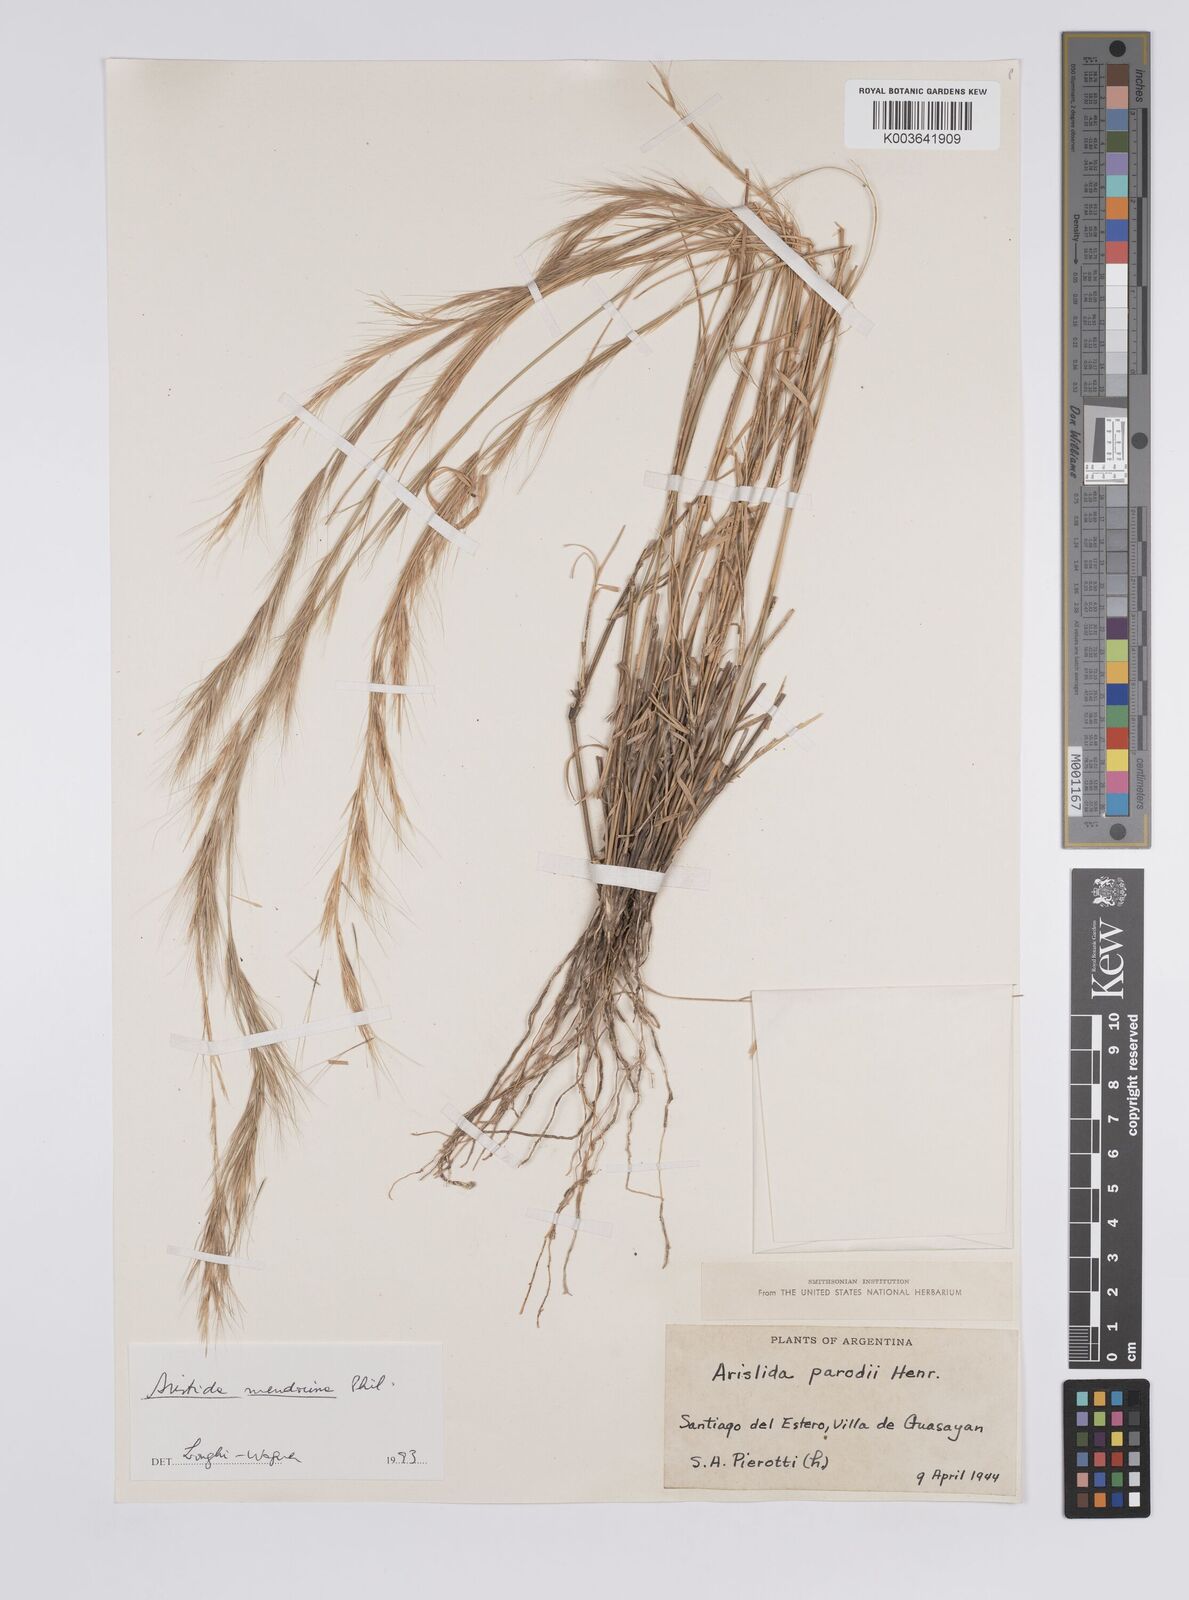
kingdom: Plantae
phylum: Tracheophyta
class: Liliopsida
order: Poales
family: Poaceae
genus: Aristida
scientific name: Aristida parodii
